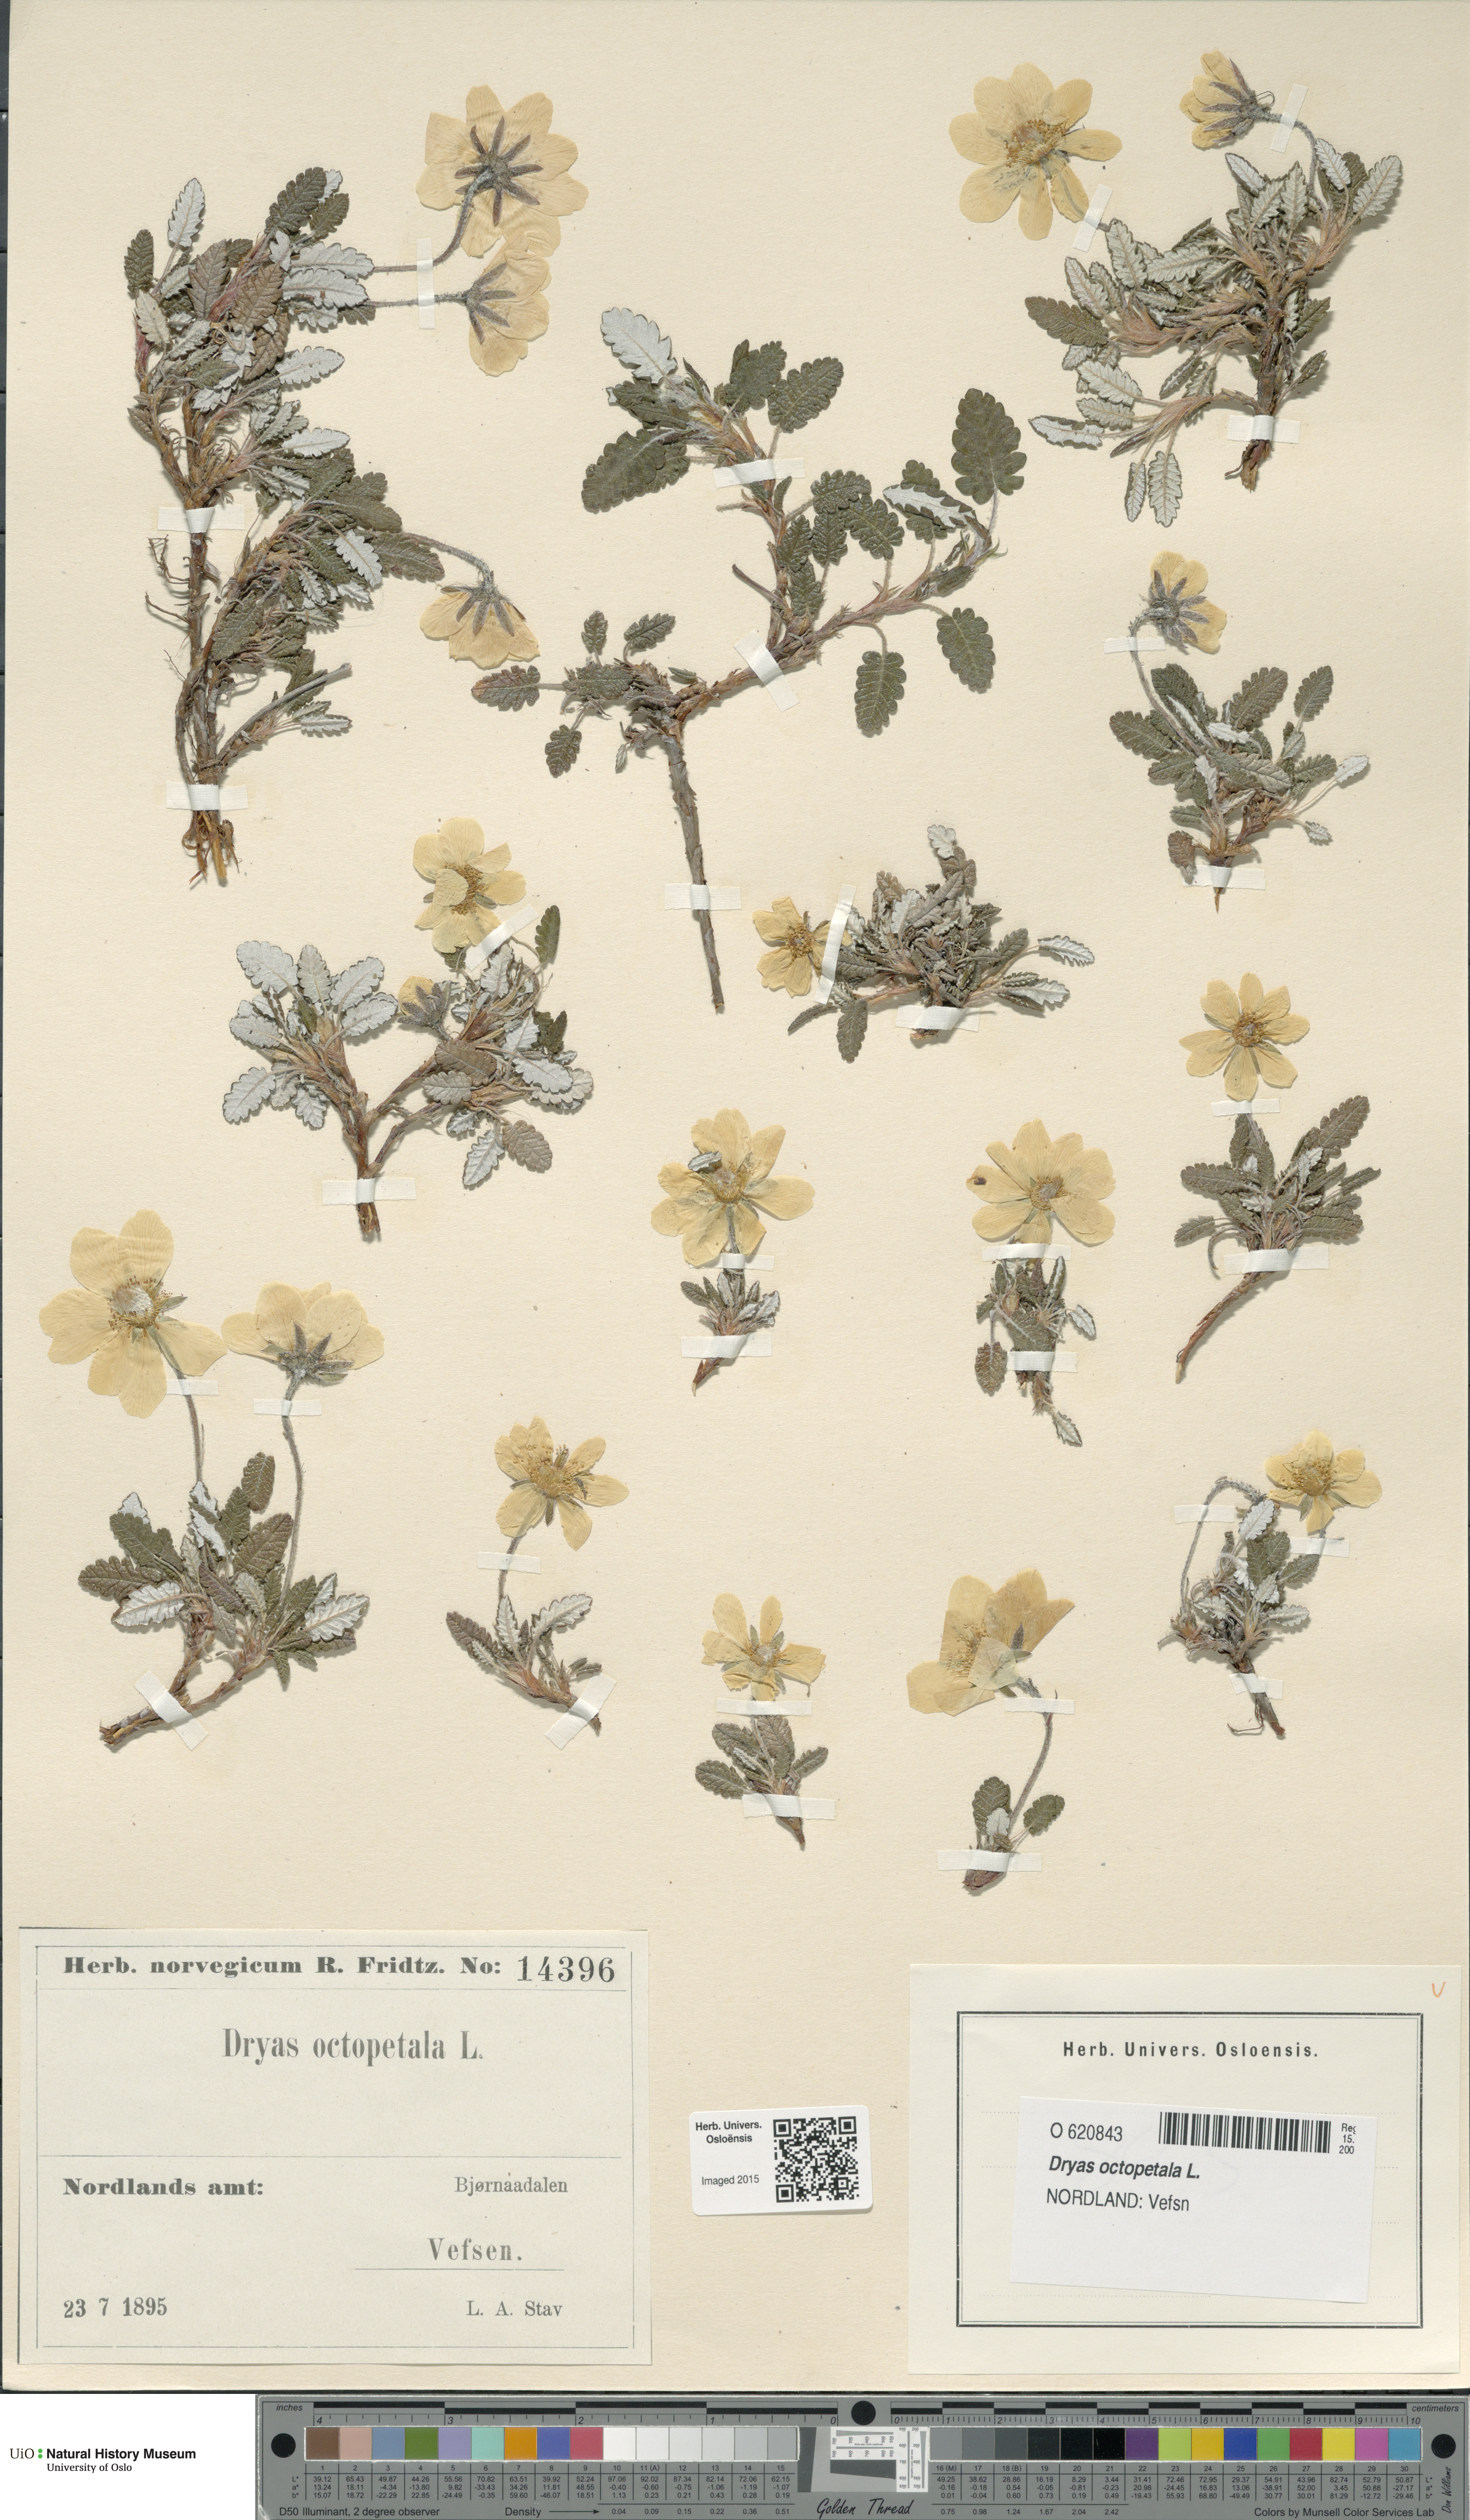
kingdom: Plantae
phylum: Tracheophyta
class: Magnoliopsida
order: Rosales
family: Rosaceae
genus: Dryas
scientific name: Dryas octopetala
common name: Eight-petal mountain-avens
